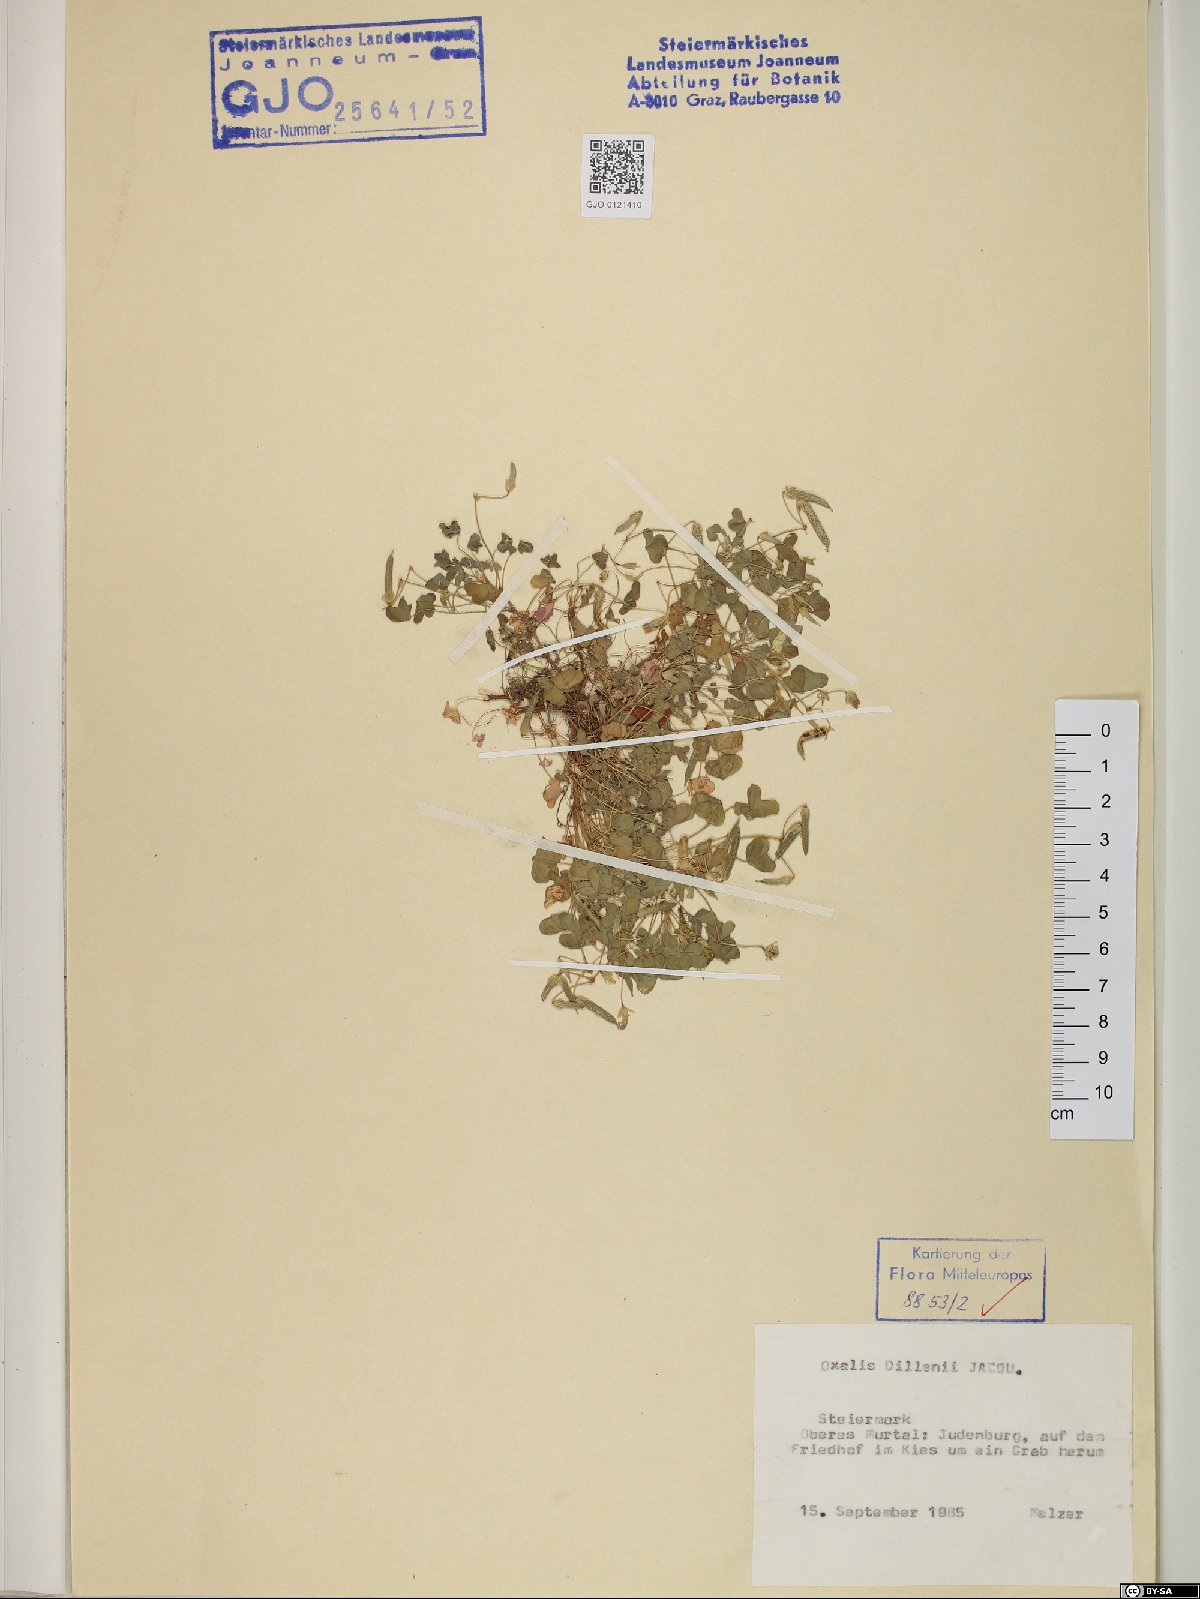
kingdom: Plantae
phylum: Tracheophyta
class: Magnoliopsida
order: Oxalidales
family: Oxalidaceae
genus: Oxalis
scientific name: Oxalis dillenii
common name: Sussex yellow-sorrel
